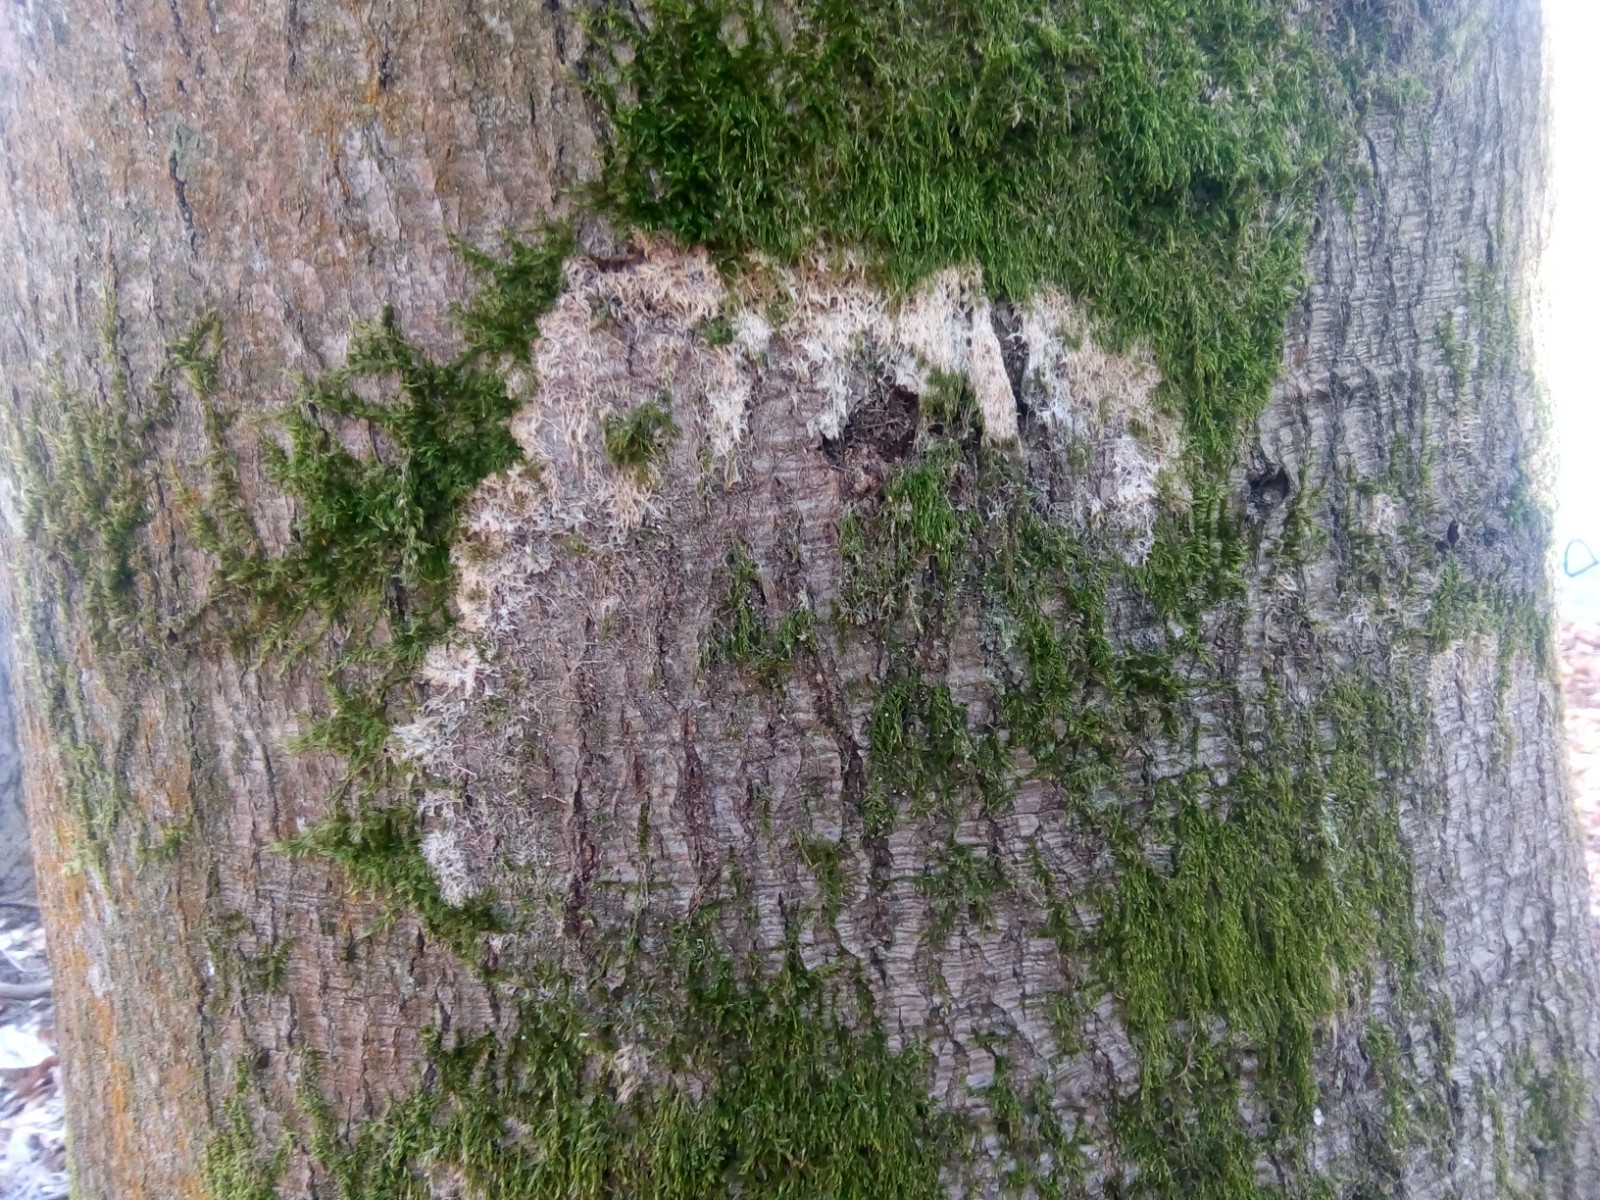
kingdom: Fungi
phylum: Basidiomycota
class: Agaricomycetes
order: Agaricales
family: Chromocyphellaceae
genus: Chromocyphella
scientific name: Chromocyphella muscicola
